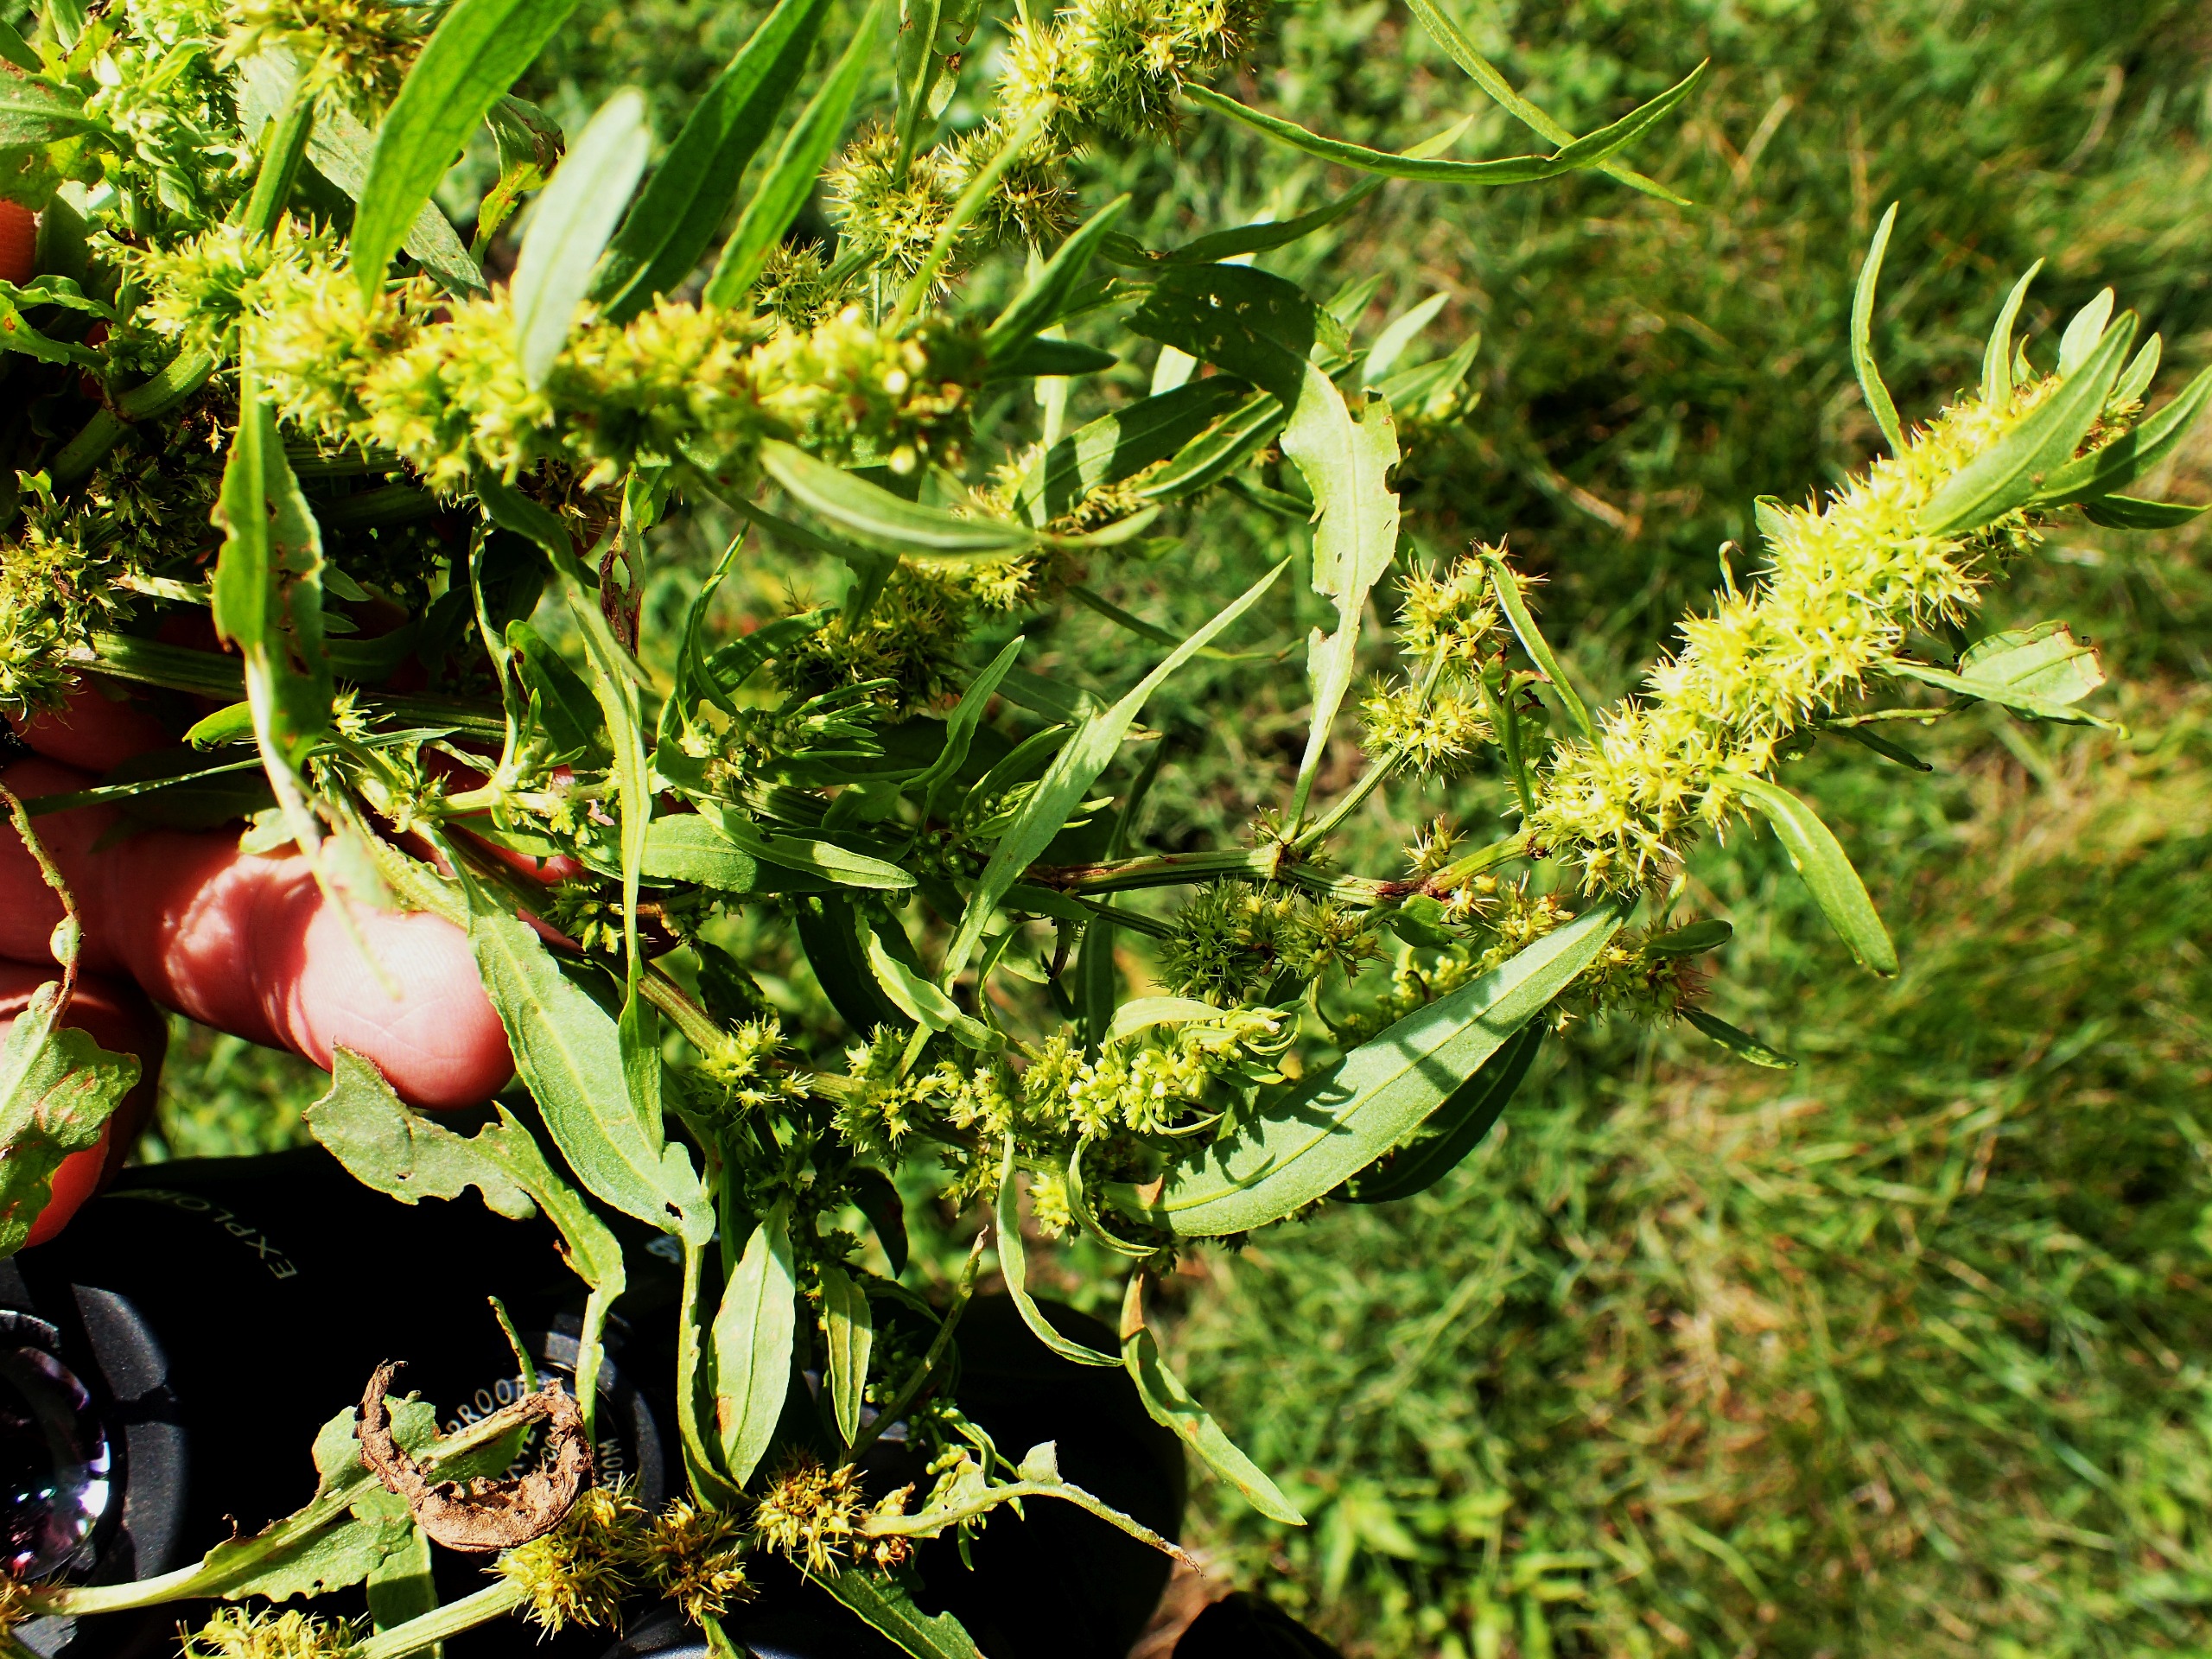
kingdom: Plantae
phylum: Tracheophyta
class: Magnoliopsida
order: Caryophyllales
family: Polygonaceae
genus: Rumex
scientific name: Rumex maritimus
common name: Strand-skræppe
